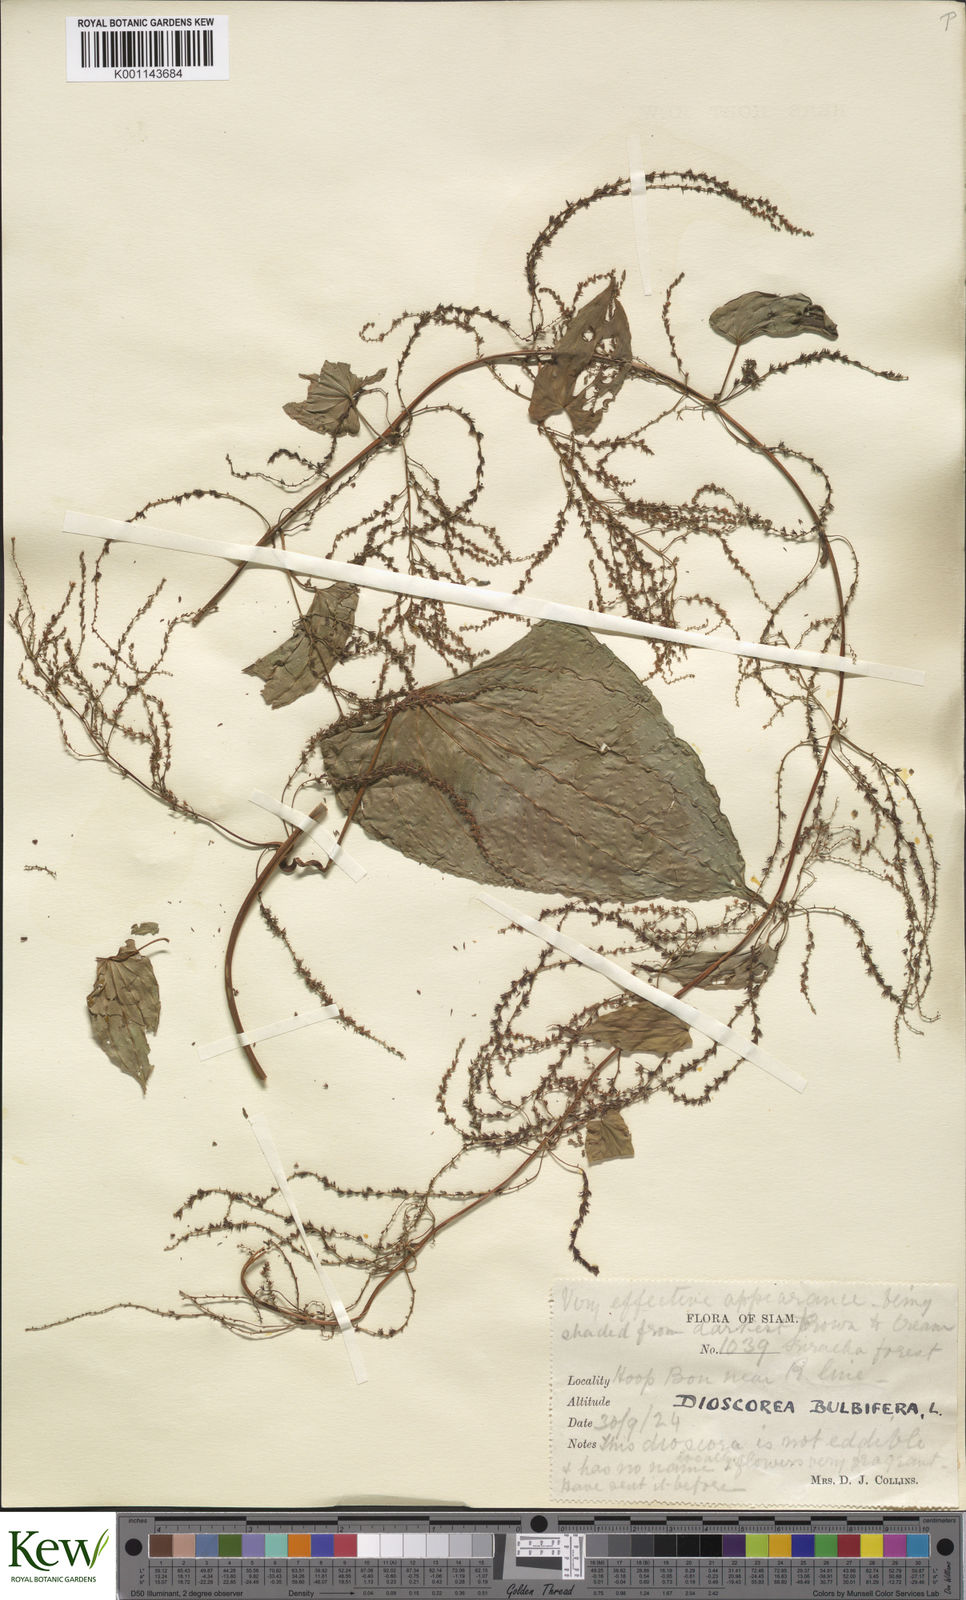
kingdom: Plantae
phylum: Tracheophyta
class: Liliopsida
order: Dioscoreales
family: Dioscoreaceae
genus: Dioscorea
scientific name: Dioscorea bulbifera
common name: Air yam
